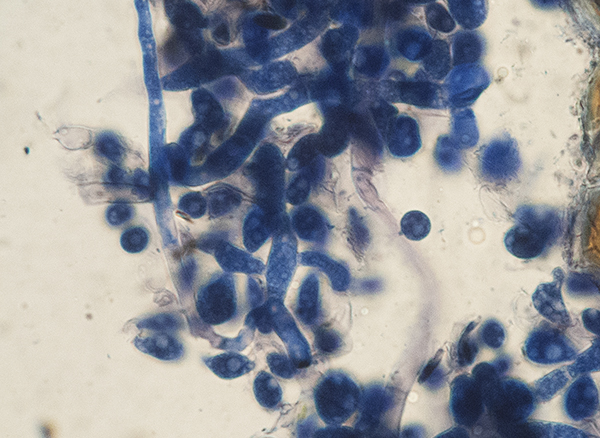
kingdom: Fungi
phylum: Basidiomycota
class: Agaricomycetes
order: Cantharellales
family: Tulasnellaceae
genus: Tulasnella
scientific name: Tulasnella
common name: ballonhinde
